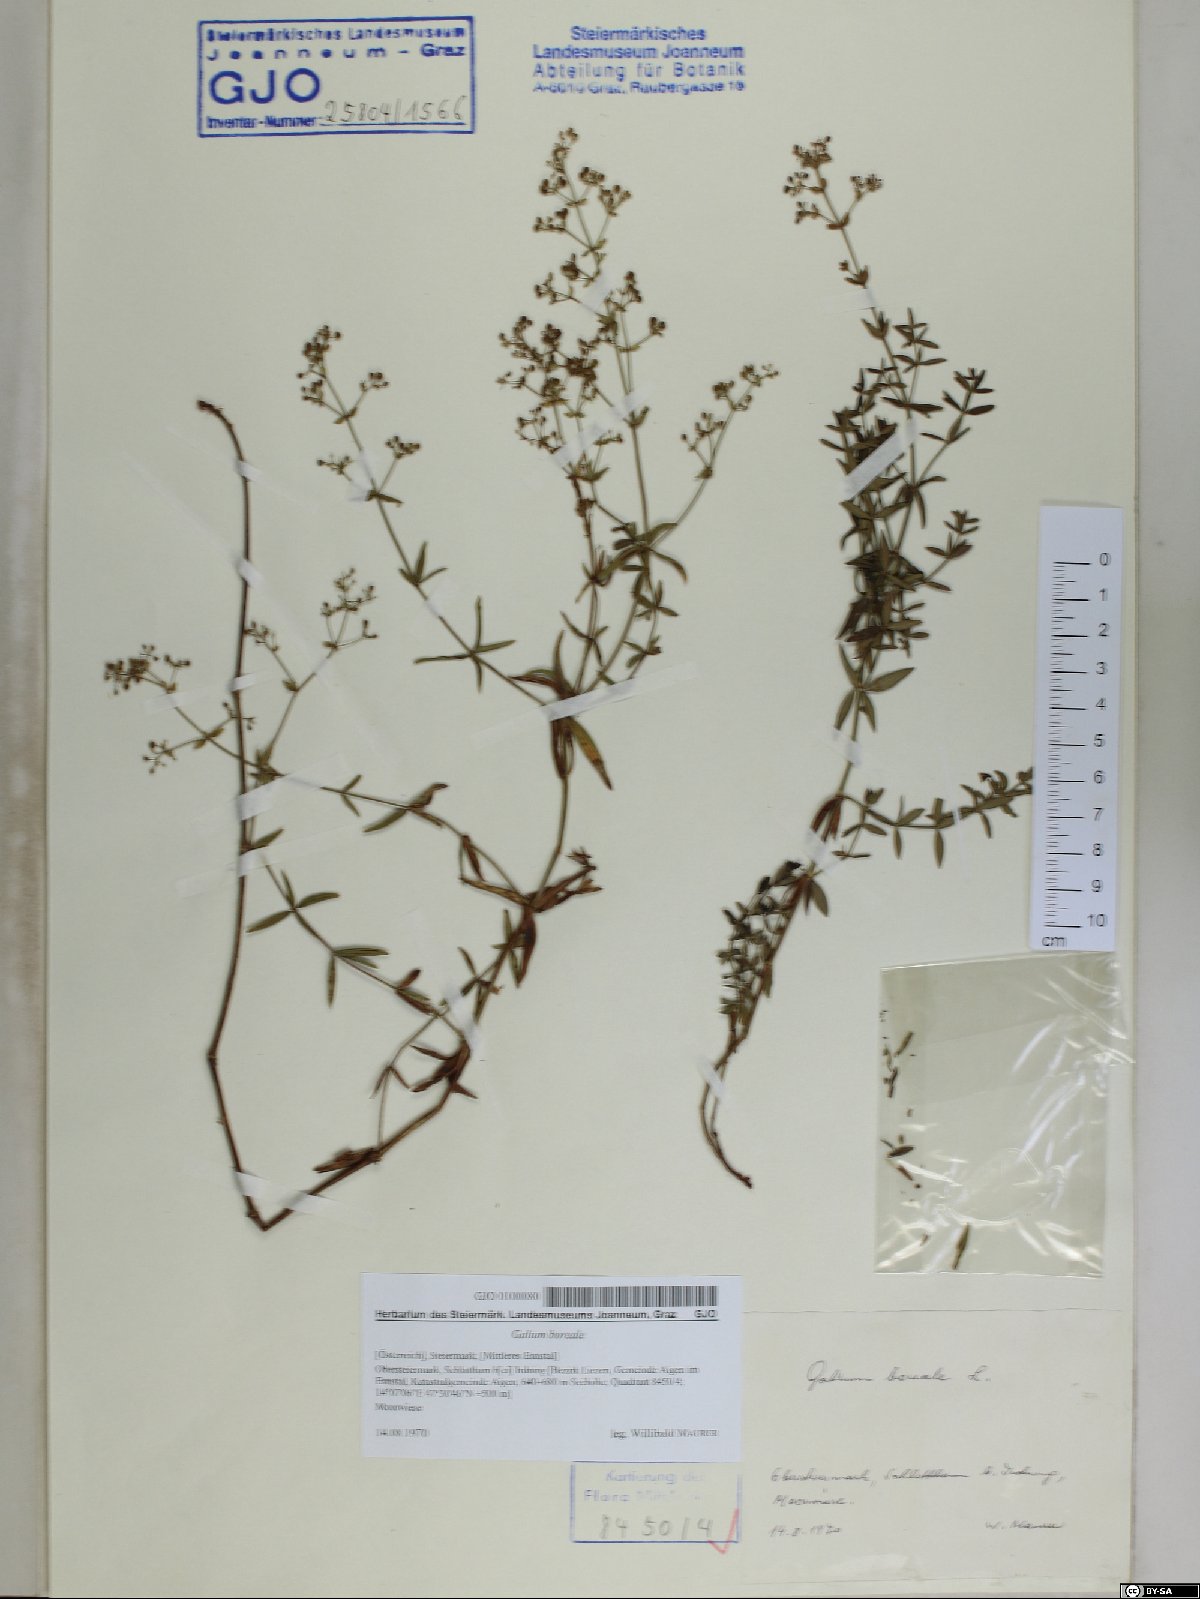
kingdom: Plantae
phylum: Tracheophyta
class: Magnoliopsida
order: Gentianales
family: Rubiaceae
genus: Galium
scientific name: Galium boreale
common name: Northern bedstraw
